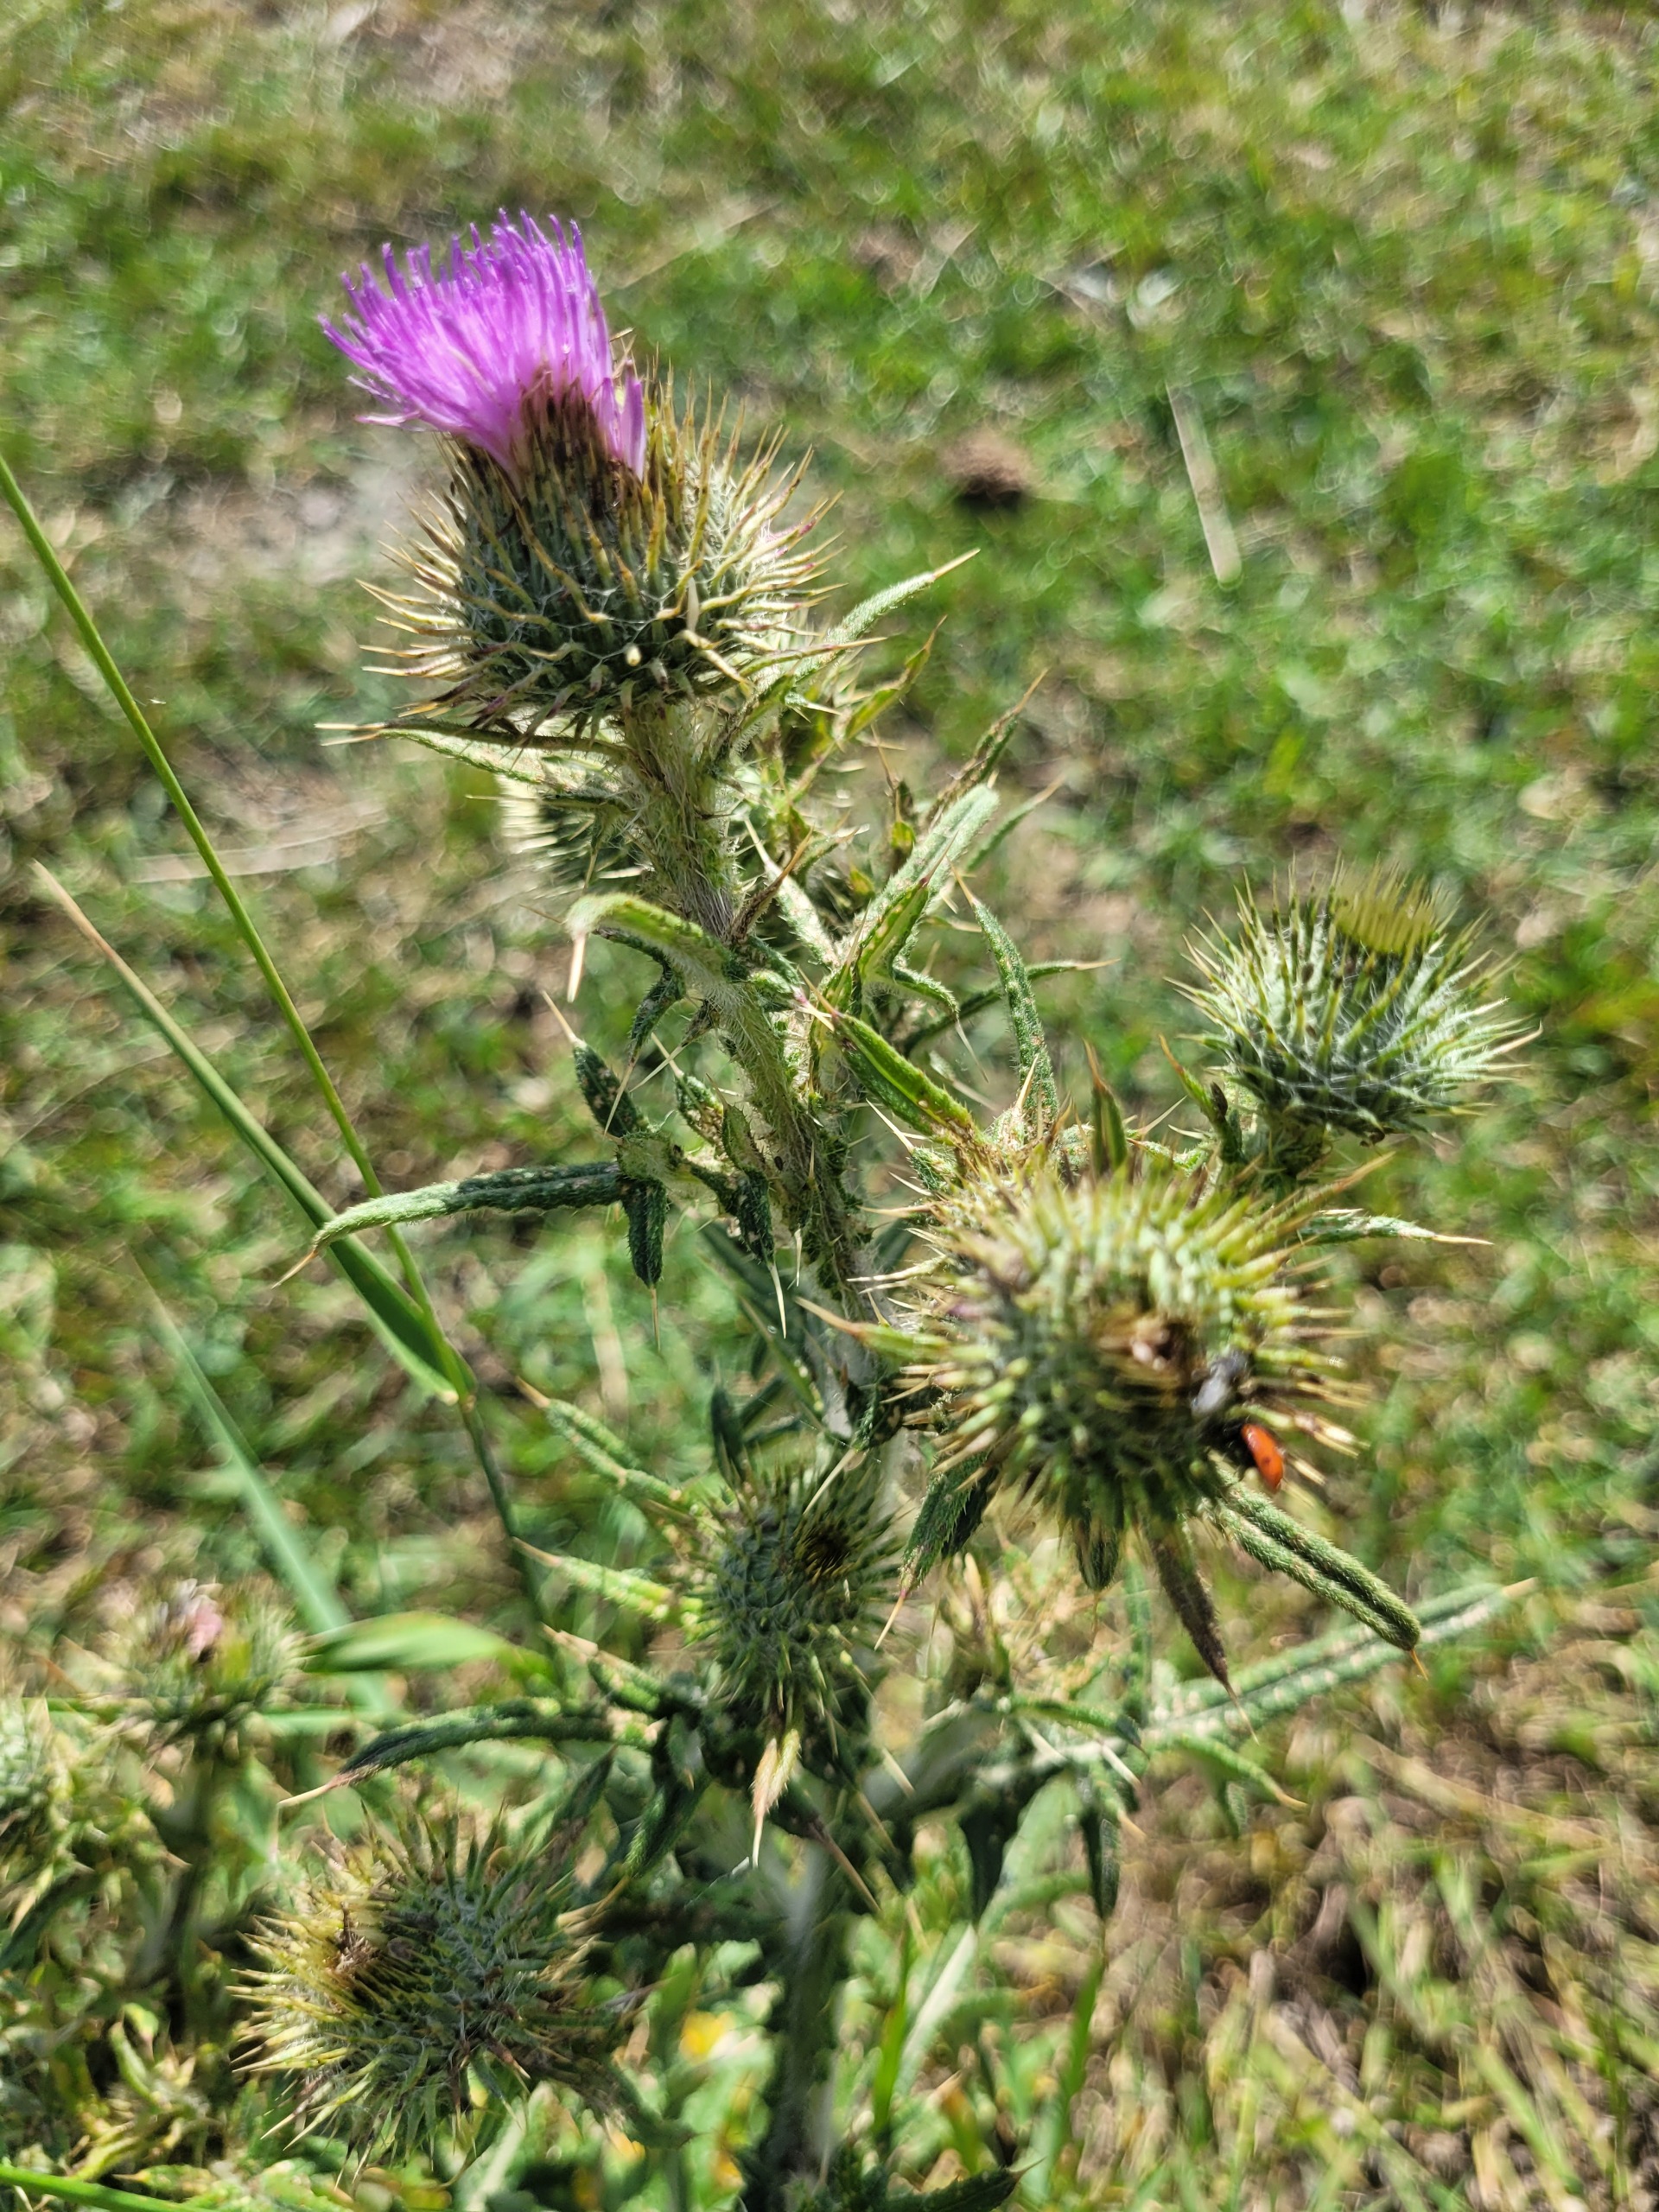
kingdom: Plantae
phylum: Tracheophyta
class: Magnoliopsida
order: Asterales
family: Asteraceae
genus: Cirsium
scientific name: Cirsium vulgare
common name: Horse-tidsel
